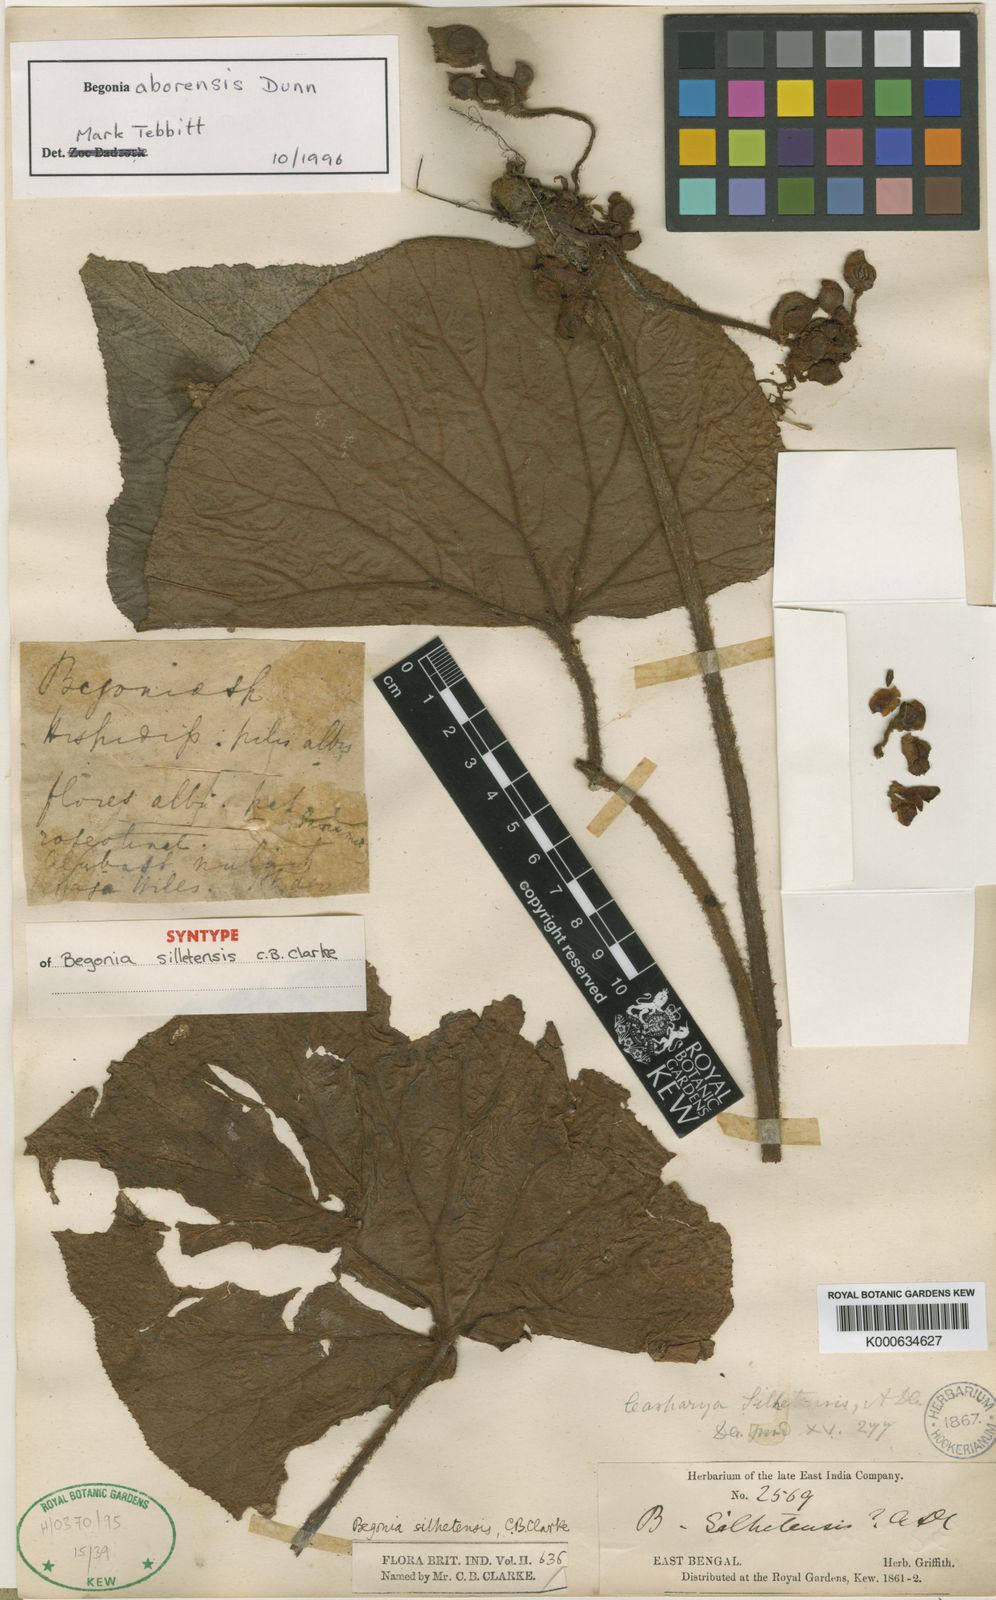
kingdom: Plantae
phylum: Tracheophyta
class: Magnoliopsida
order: Cucurbitales
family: Begoniaceae
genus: Begonia
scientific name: Begonia aborensis
